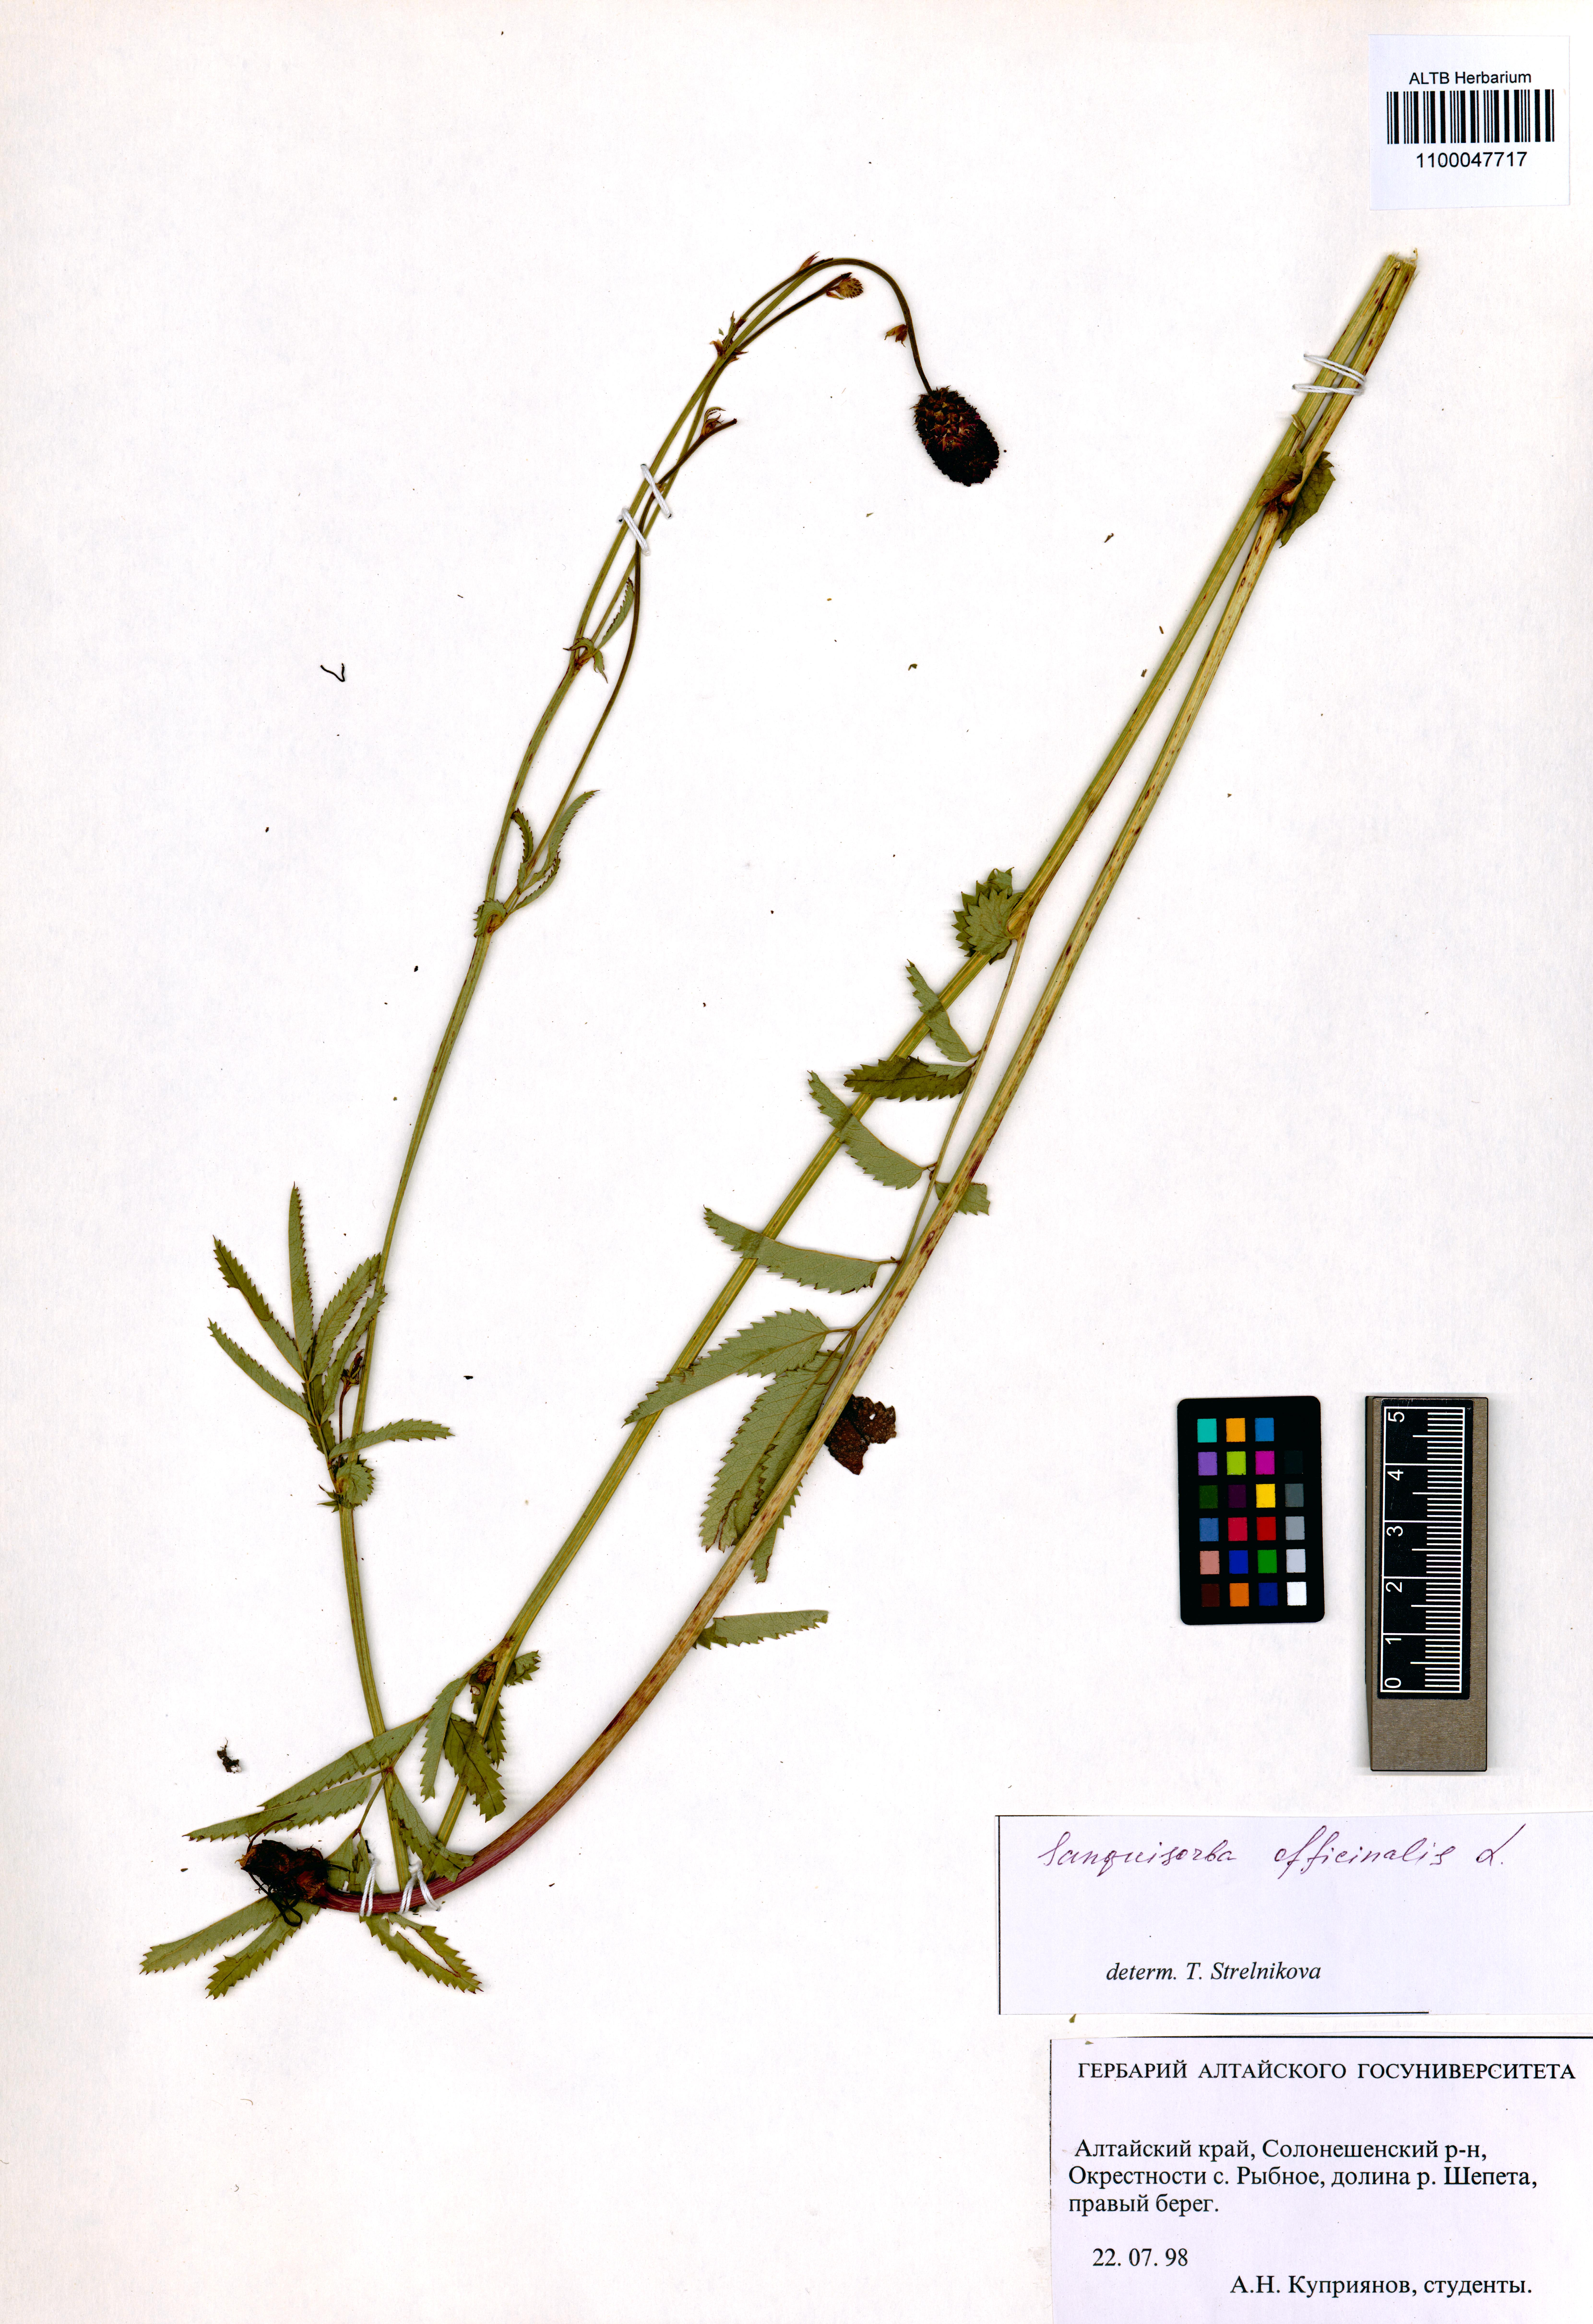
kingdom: Plantae
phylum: Tracheophyta
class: Magnoliopsida
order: Rosales
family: Rosaceae
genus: Sanguisorba
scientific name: Sanguisorba officinalis
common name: Great burnet
